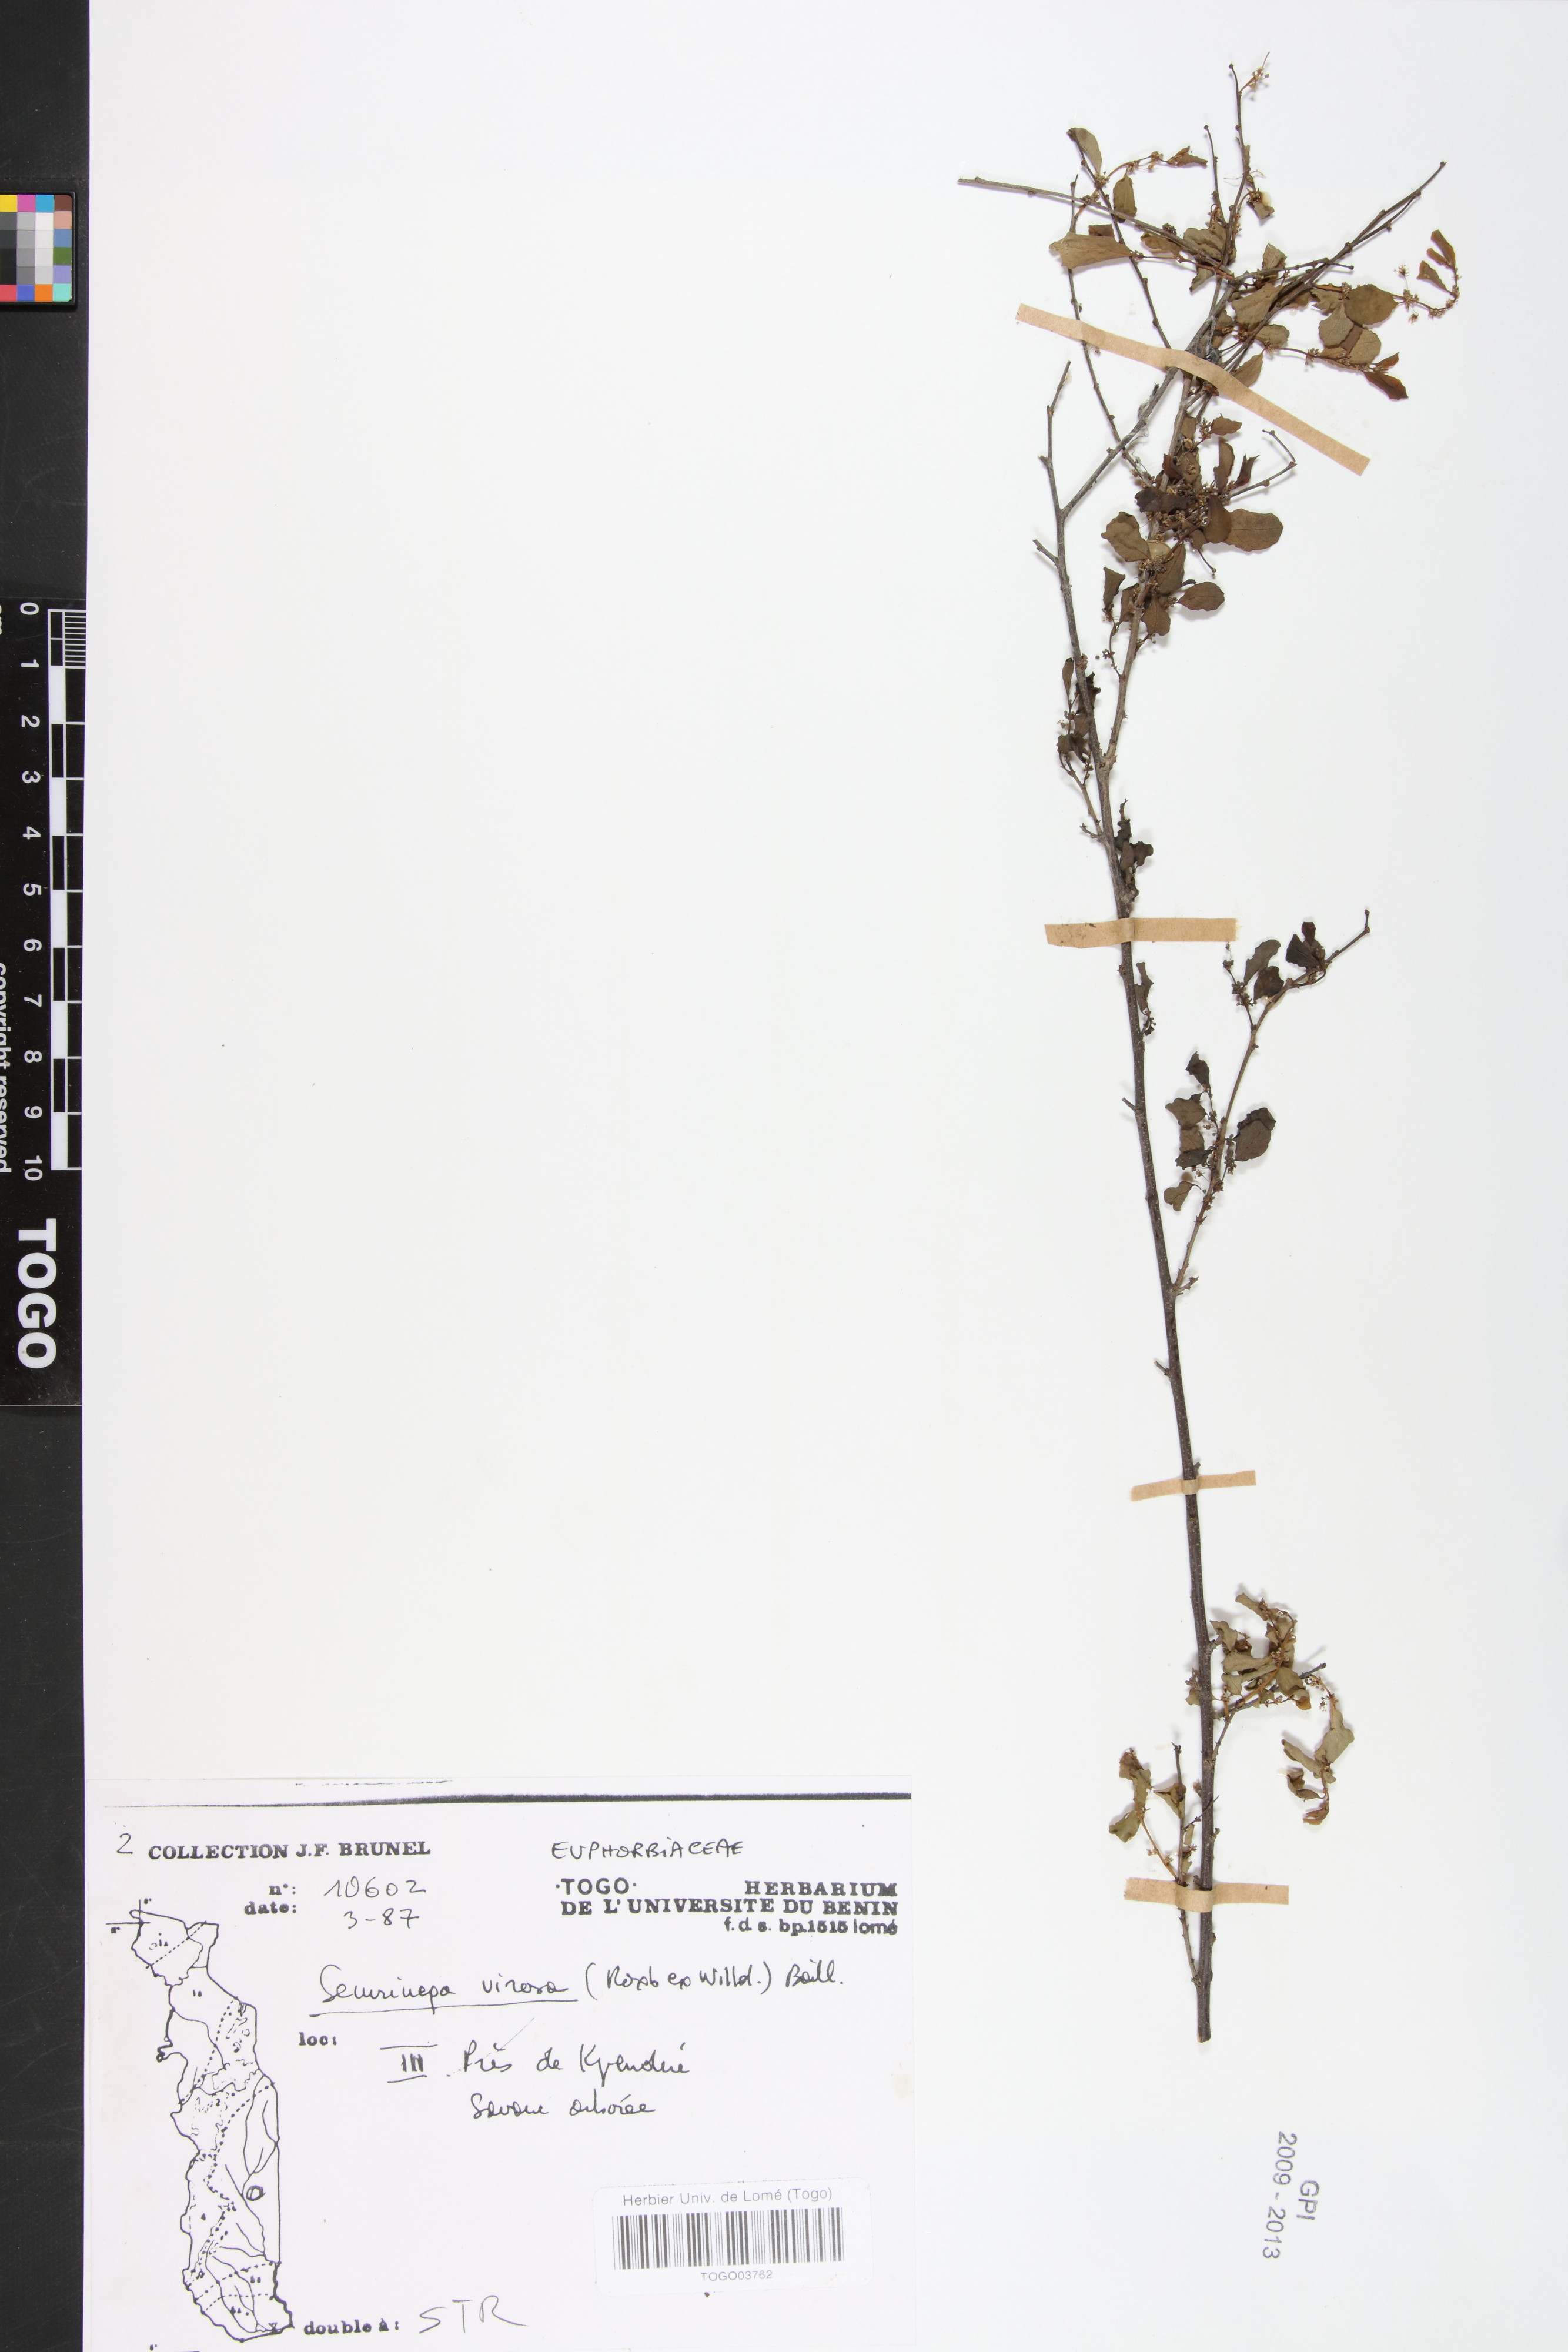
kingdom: Plantae
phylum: Tracheophyta
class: Magnoliopsida
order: Malpighiales
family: Phyllanthaceae
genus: Flueggea
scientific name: Flueggea virosa
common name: Common bushweed
